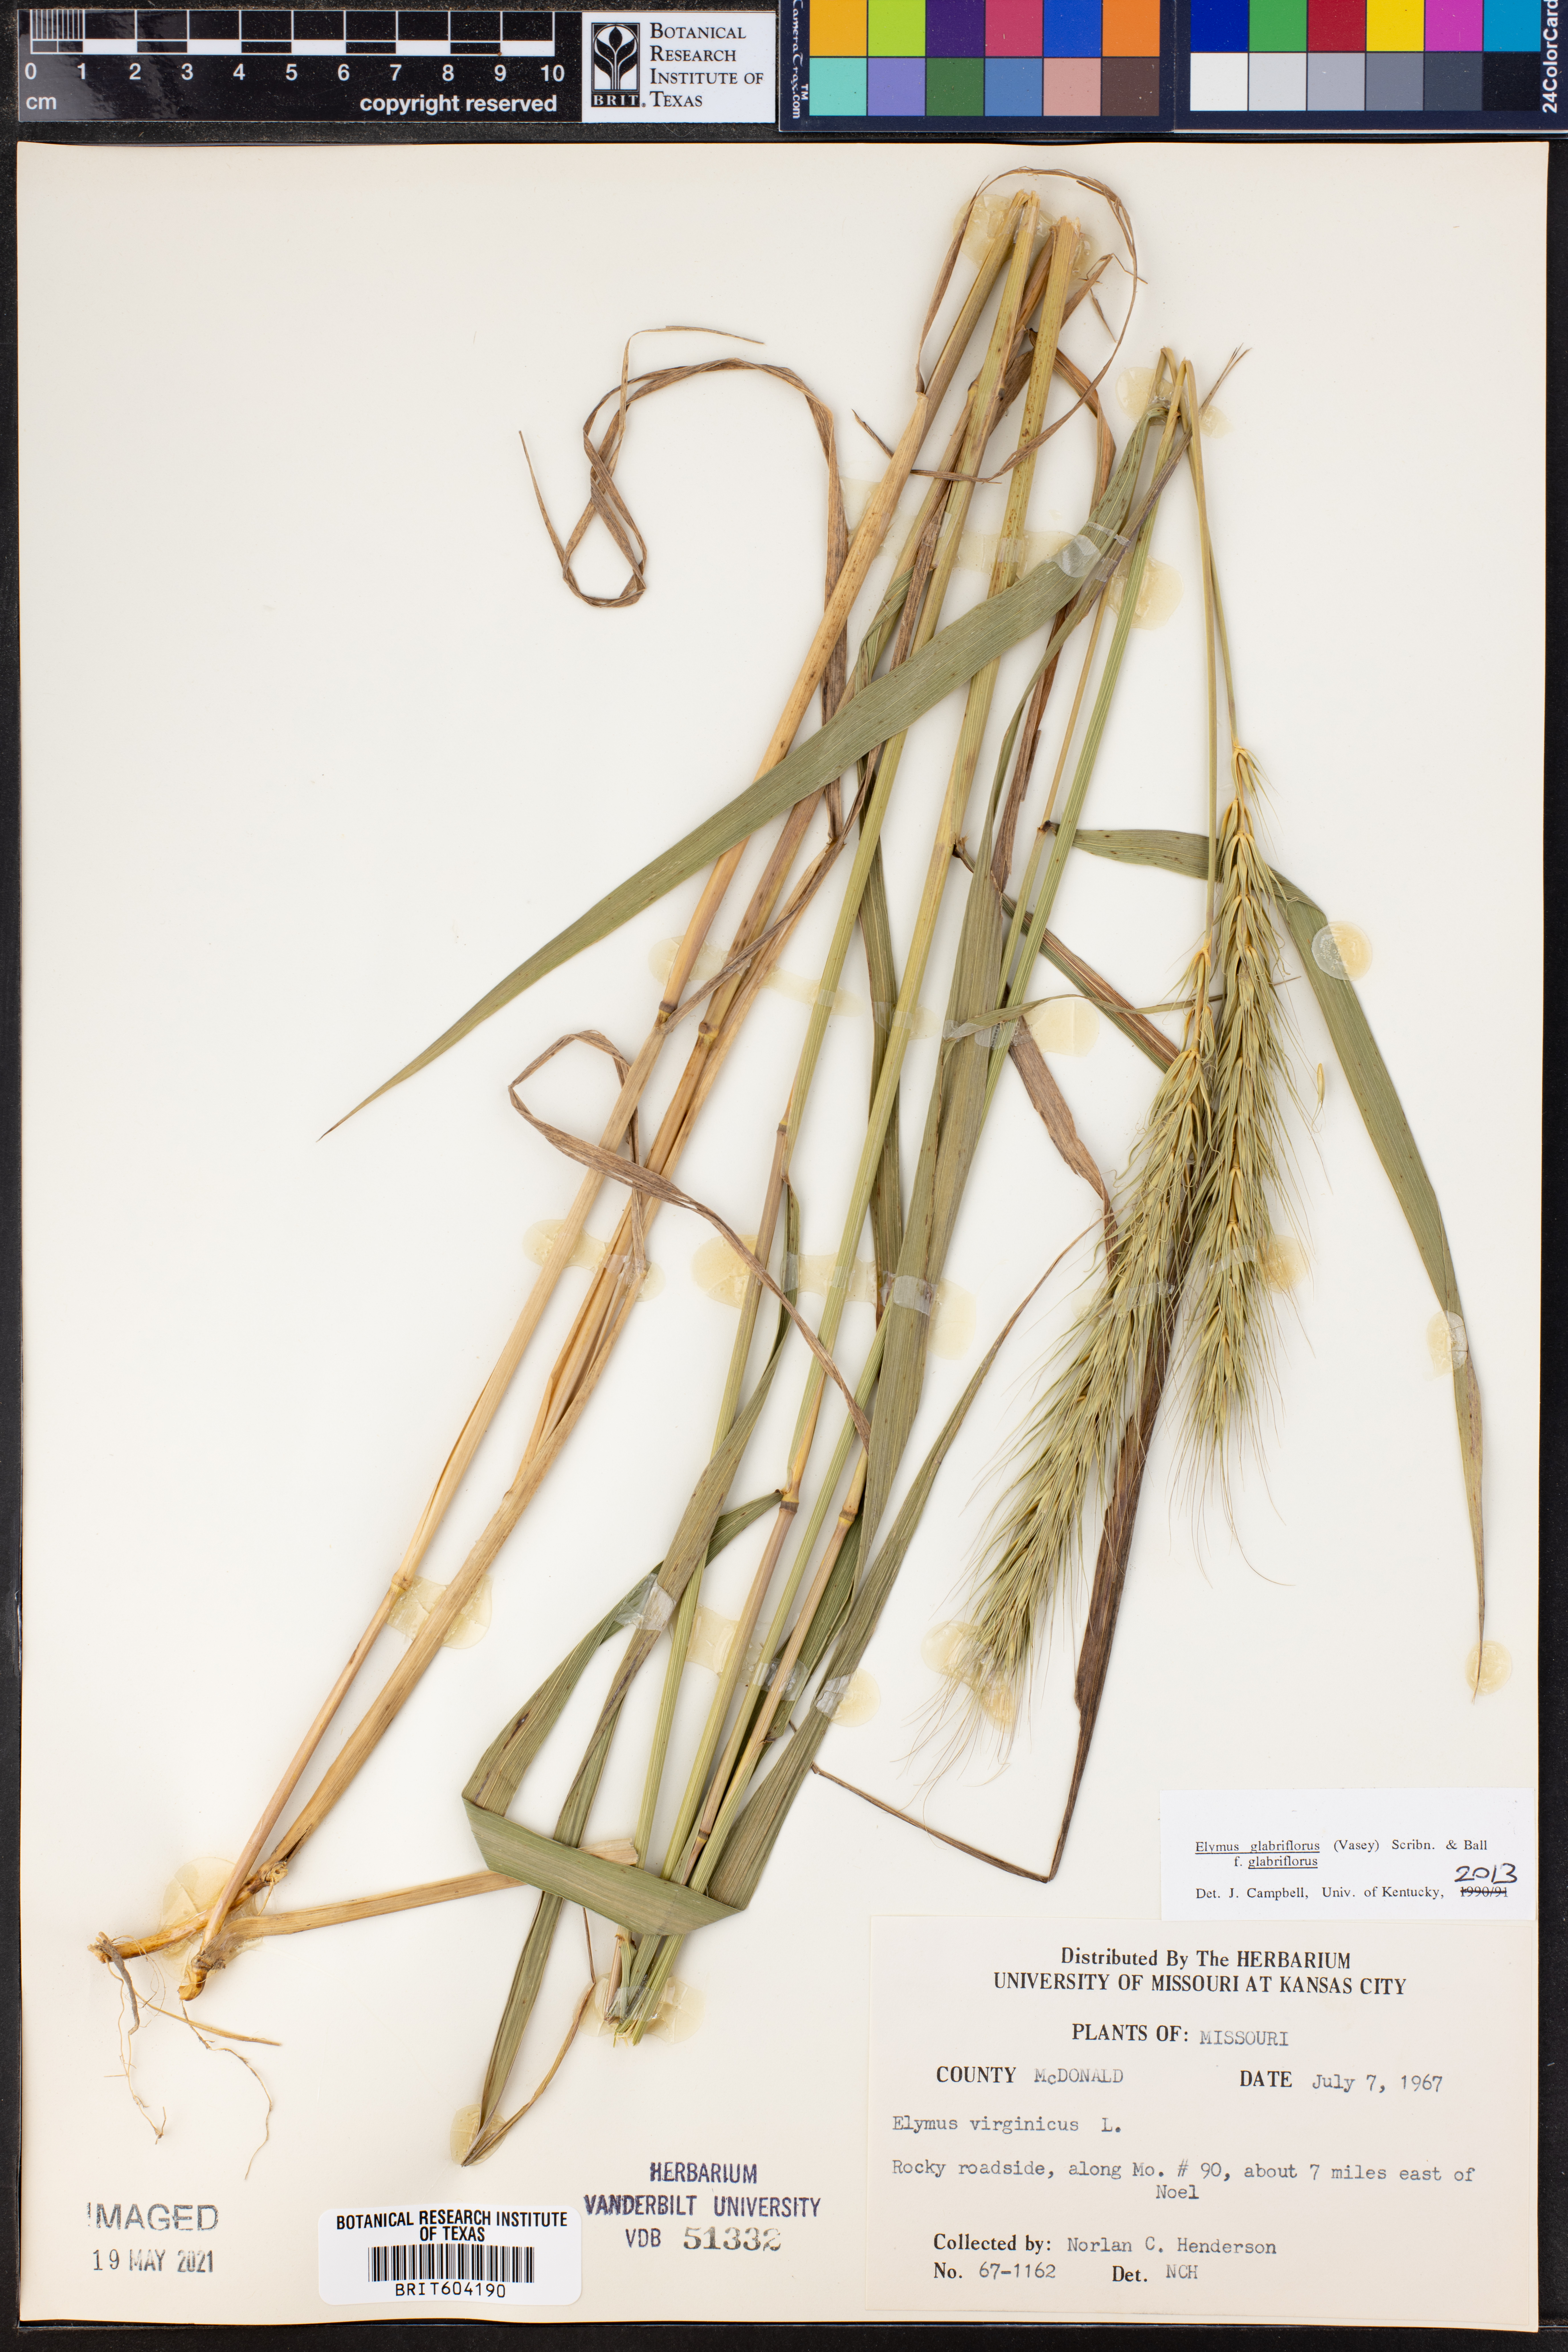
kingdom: Plantae
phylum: Tracheophyta
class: Liliopsida
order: Poales
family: Poaceae
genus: Elymus
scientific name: Elymus virginicus
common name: Common eastern wildrye
